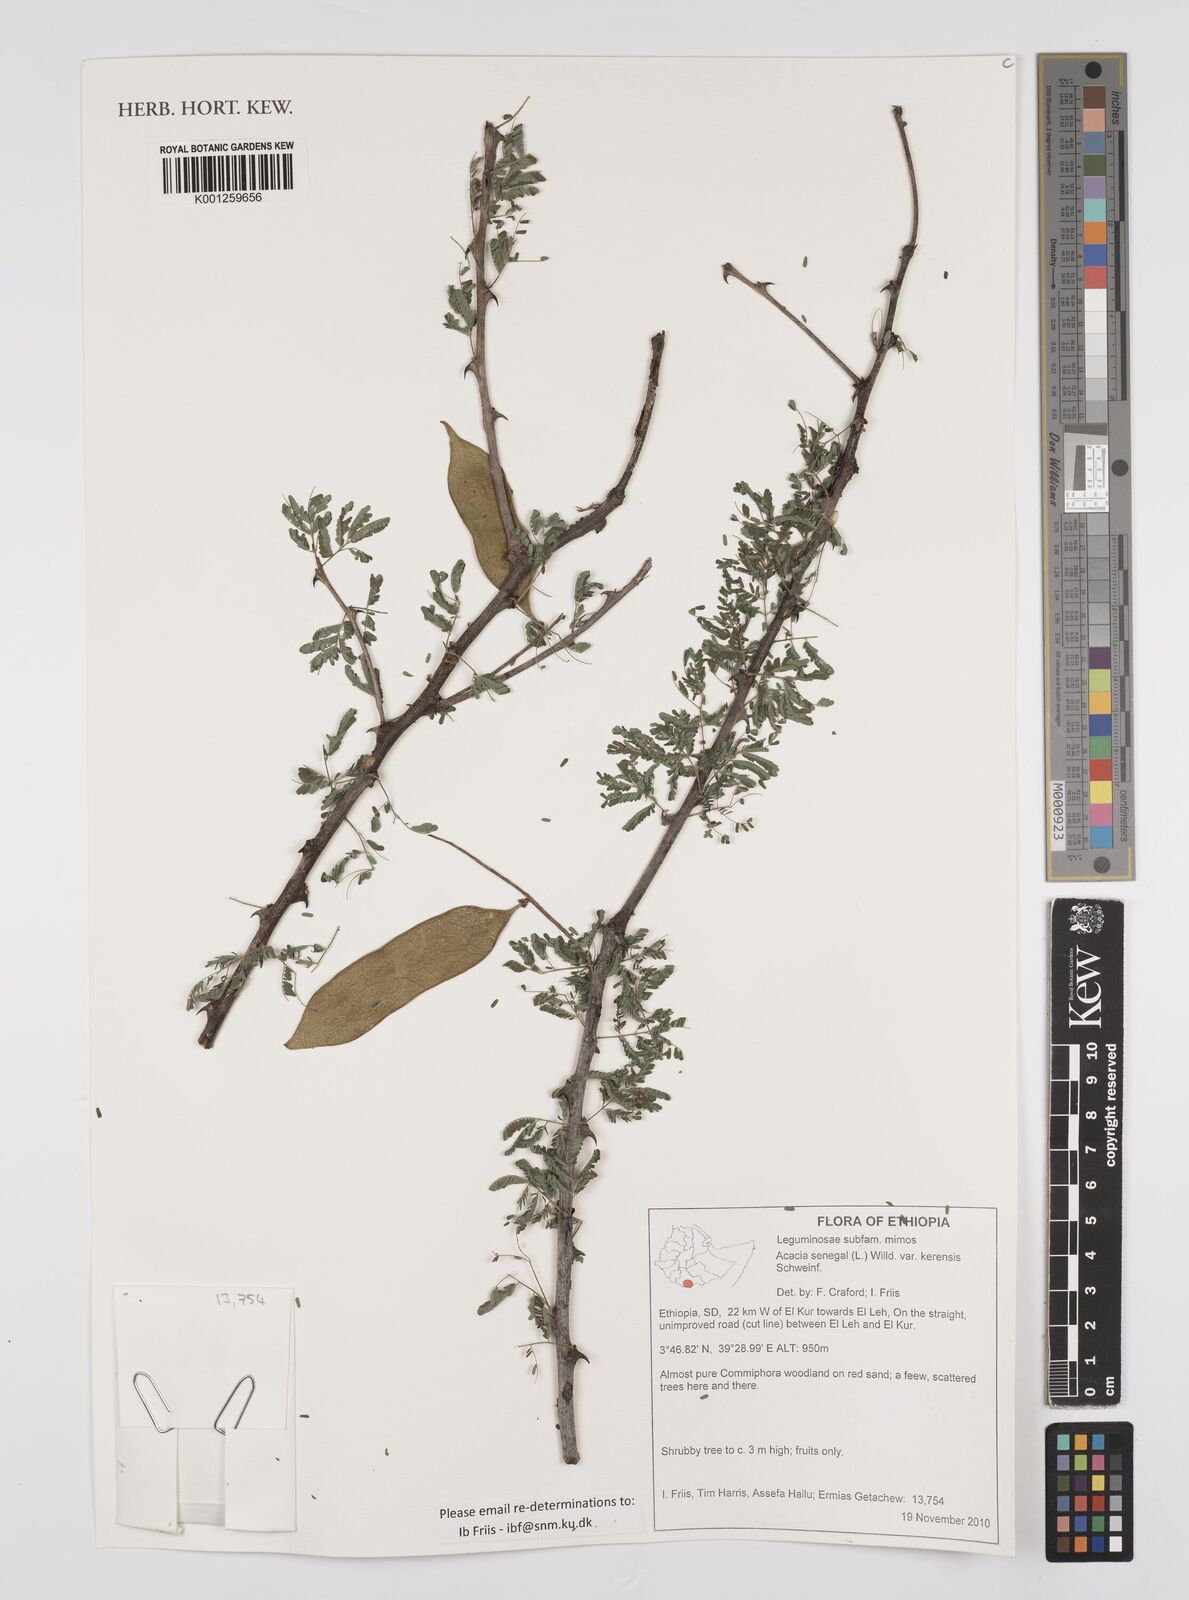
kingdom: Plantae
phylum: Tracheophyta
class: Magnoliopsida
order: Fabales
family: Fabaceae
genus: Senegalia
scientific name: Senegalia senegal
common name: Senegal-gum
